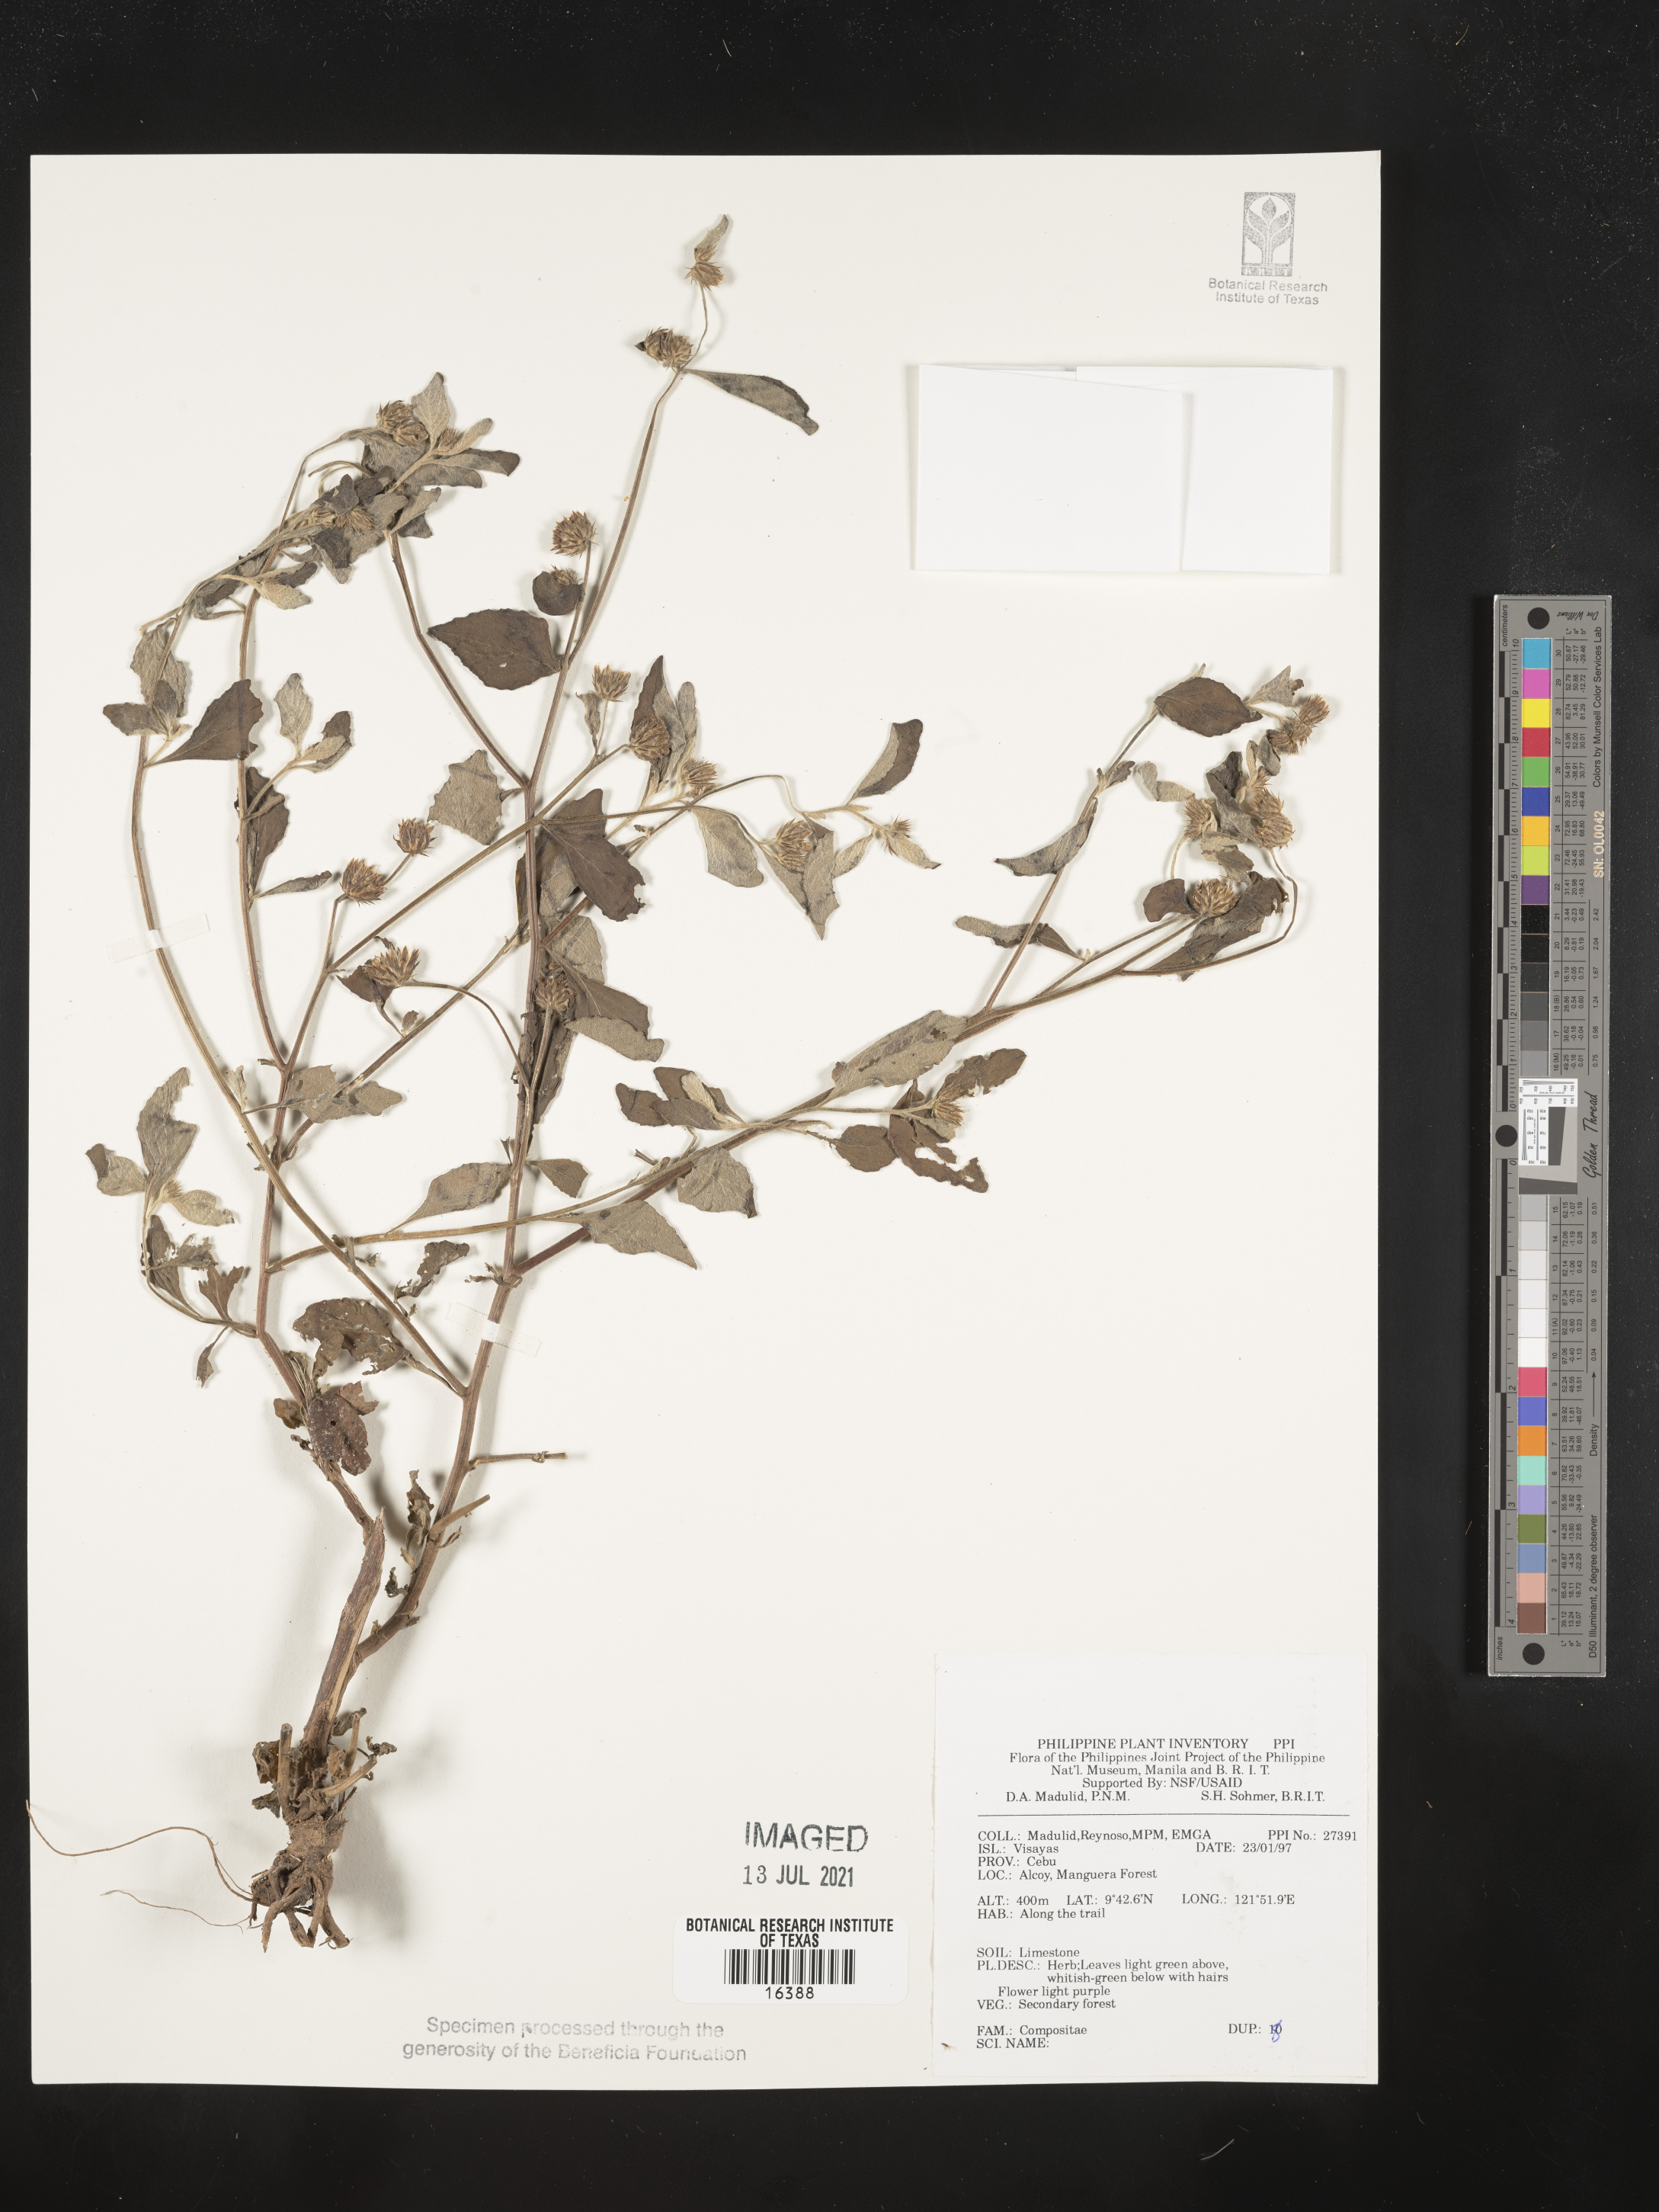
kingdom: Plantae
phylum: Tracheophyta
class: Magnoliopsida
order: Asterales
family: Asteraceae
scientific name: Asteraceae
